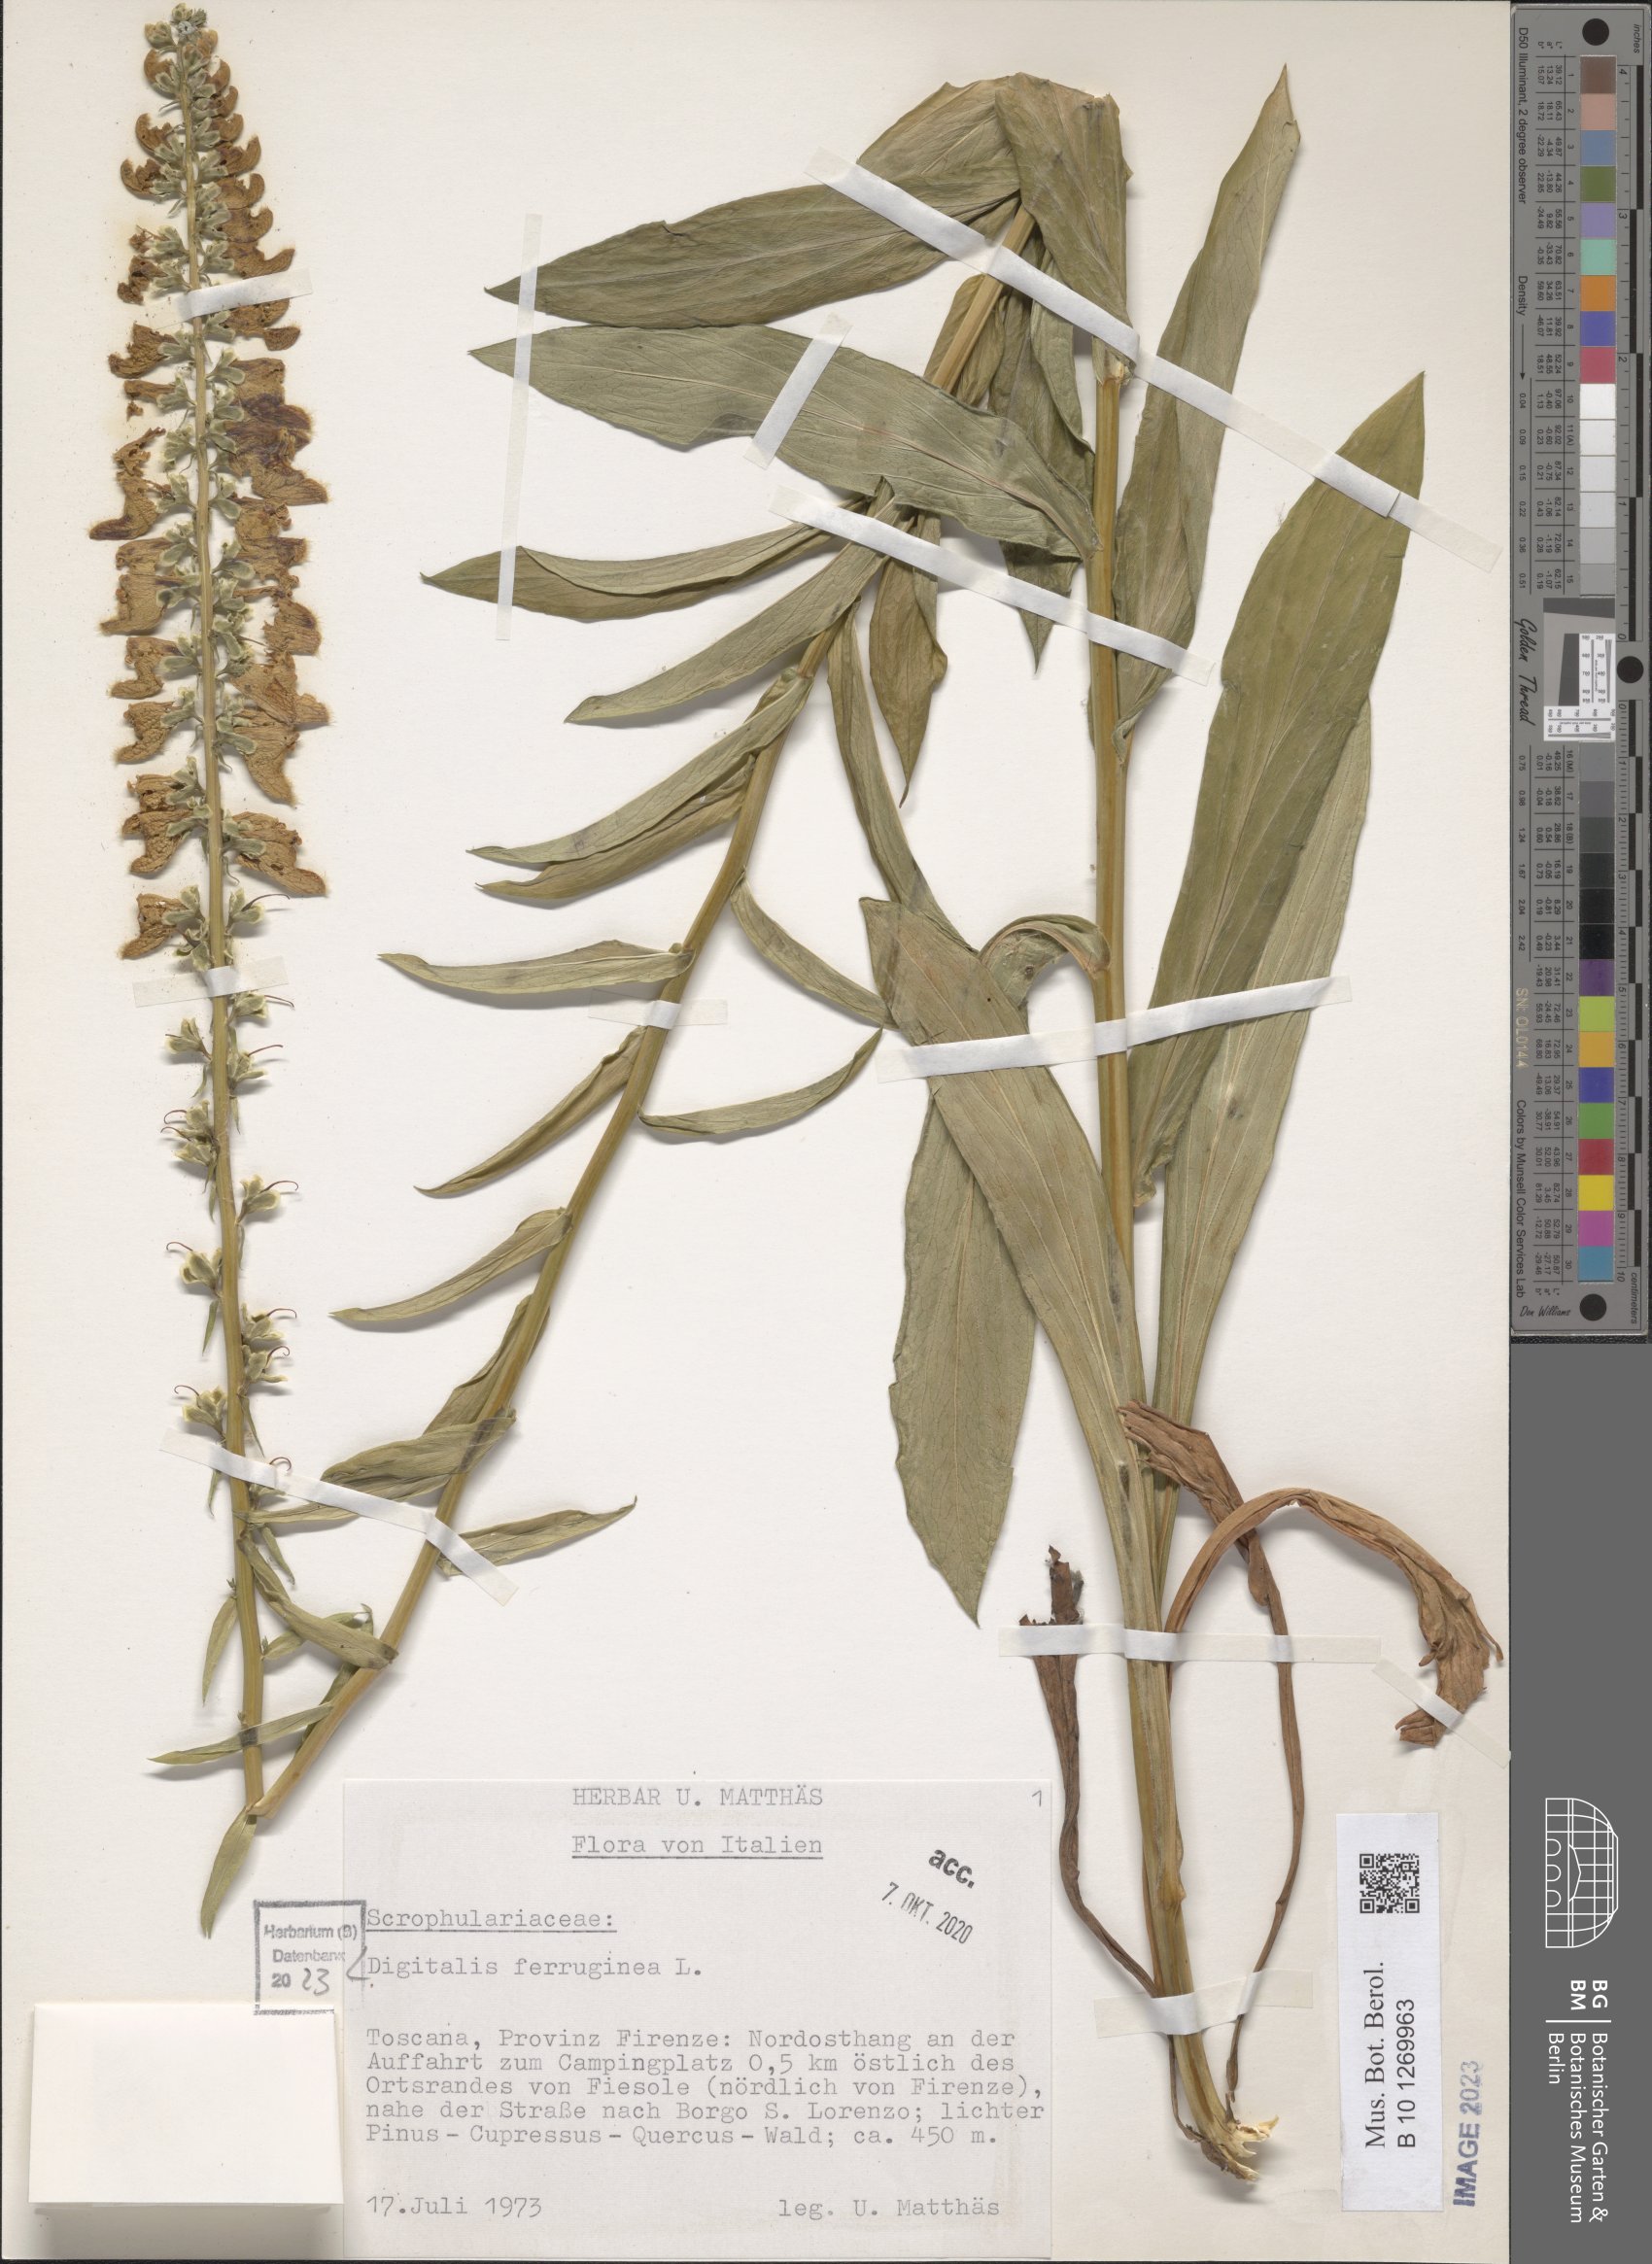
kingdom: Plantae
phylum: Tracheophyta
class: Magnoliopsida
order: Lamiales
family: Plantaginaceae
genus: Digitalis
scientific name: Digitalis ferruginea
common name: Rusty foxglove
